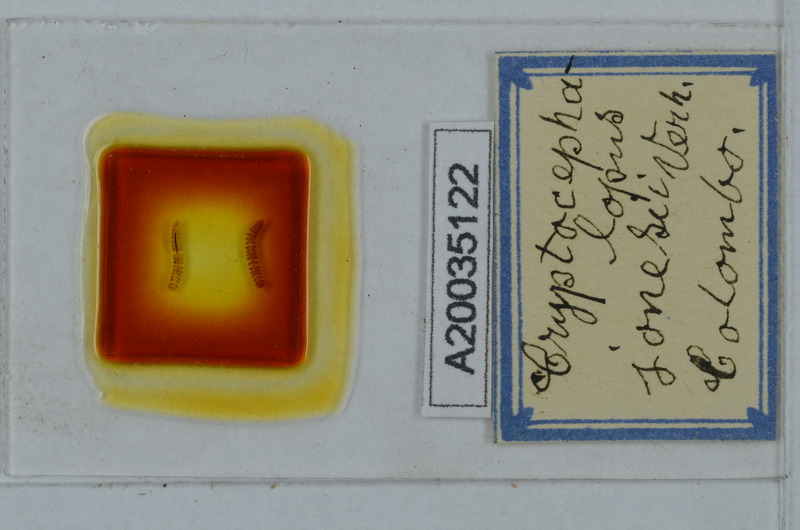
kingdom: Animalia
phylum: Arthropoda
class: Diplopoda
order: Polydesmida
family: Pyrgodesmidae
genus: Cryptocephalopus
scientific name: Cryptocephalopus jonesii
